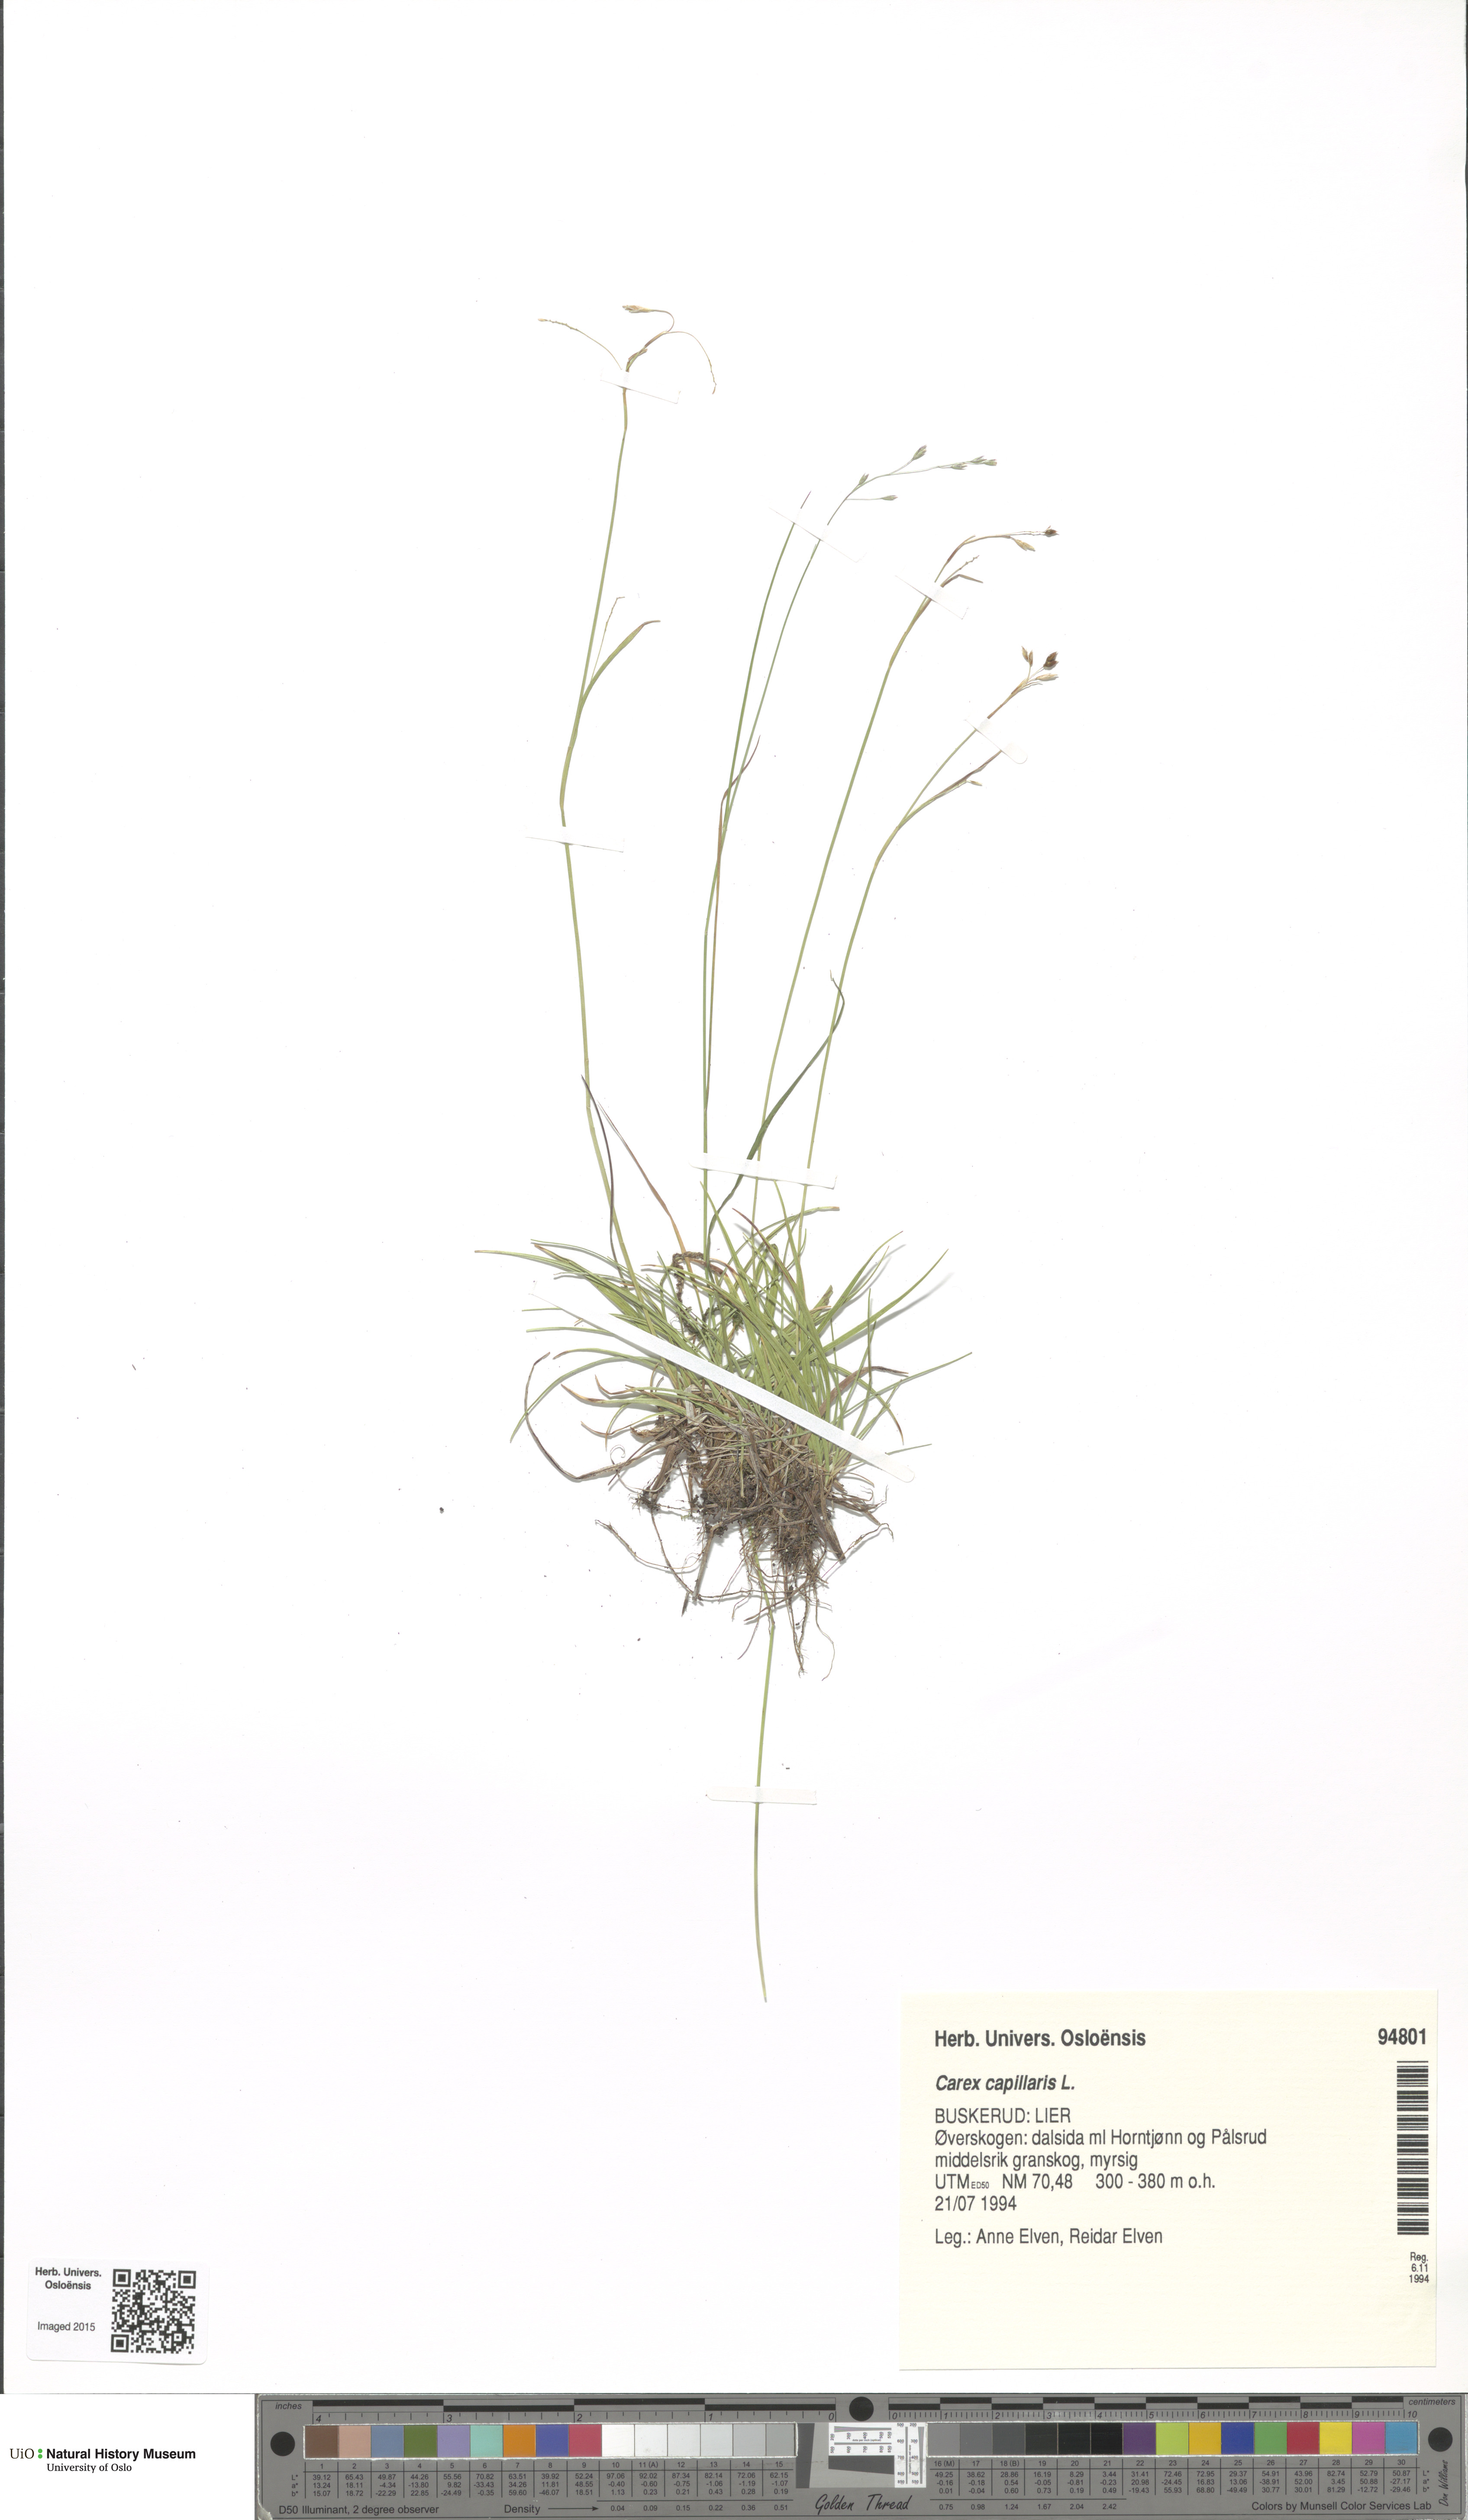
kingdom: Plantae
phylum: Tracheophyta
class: Liliopsida
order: Poales
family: Cyperaceae
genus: Carex
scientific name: Carex capillaris
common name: Hair sedge
